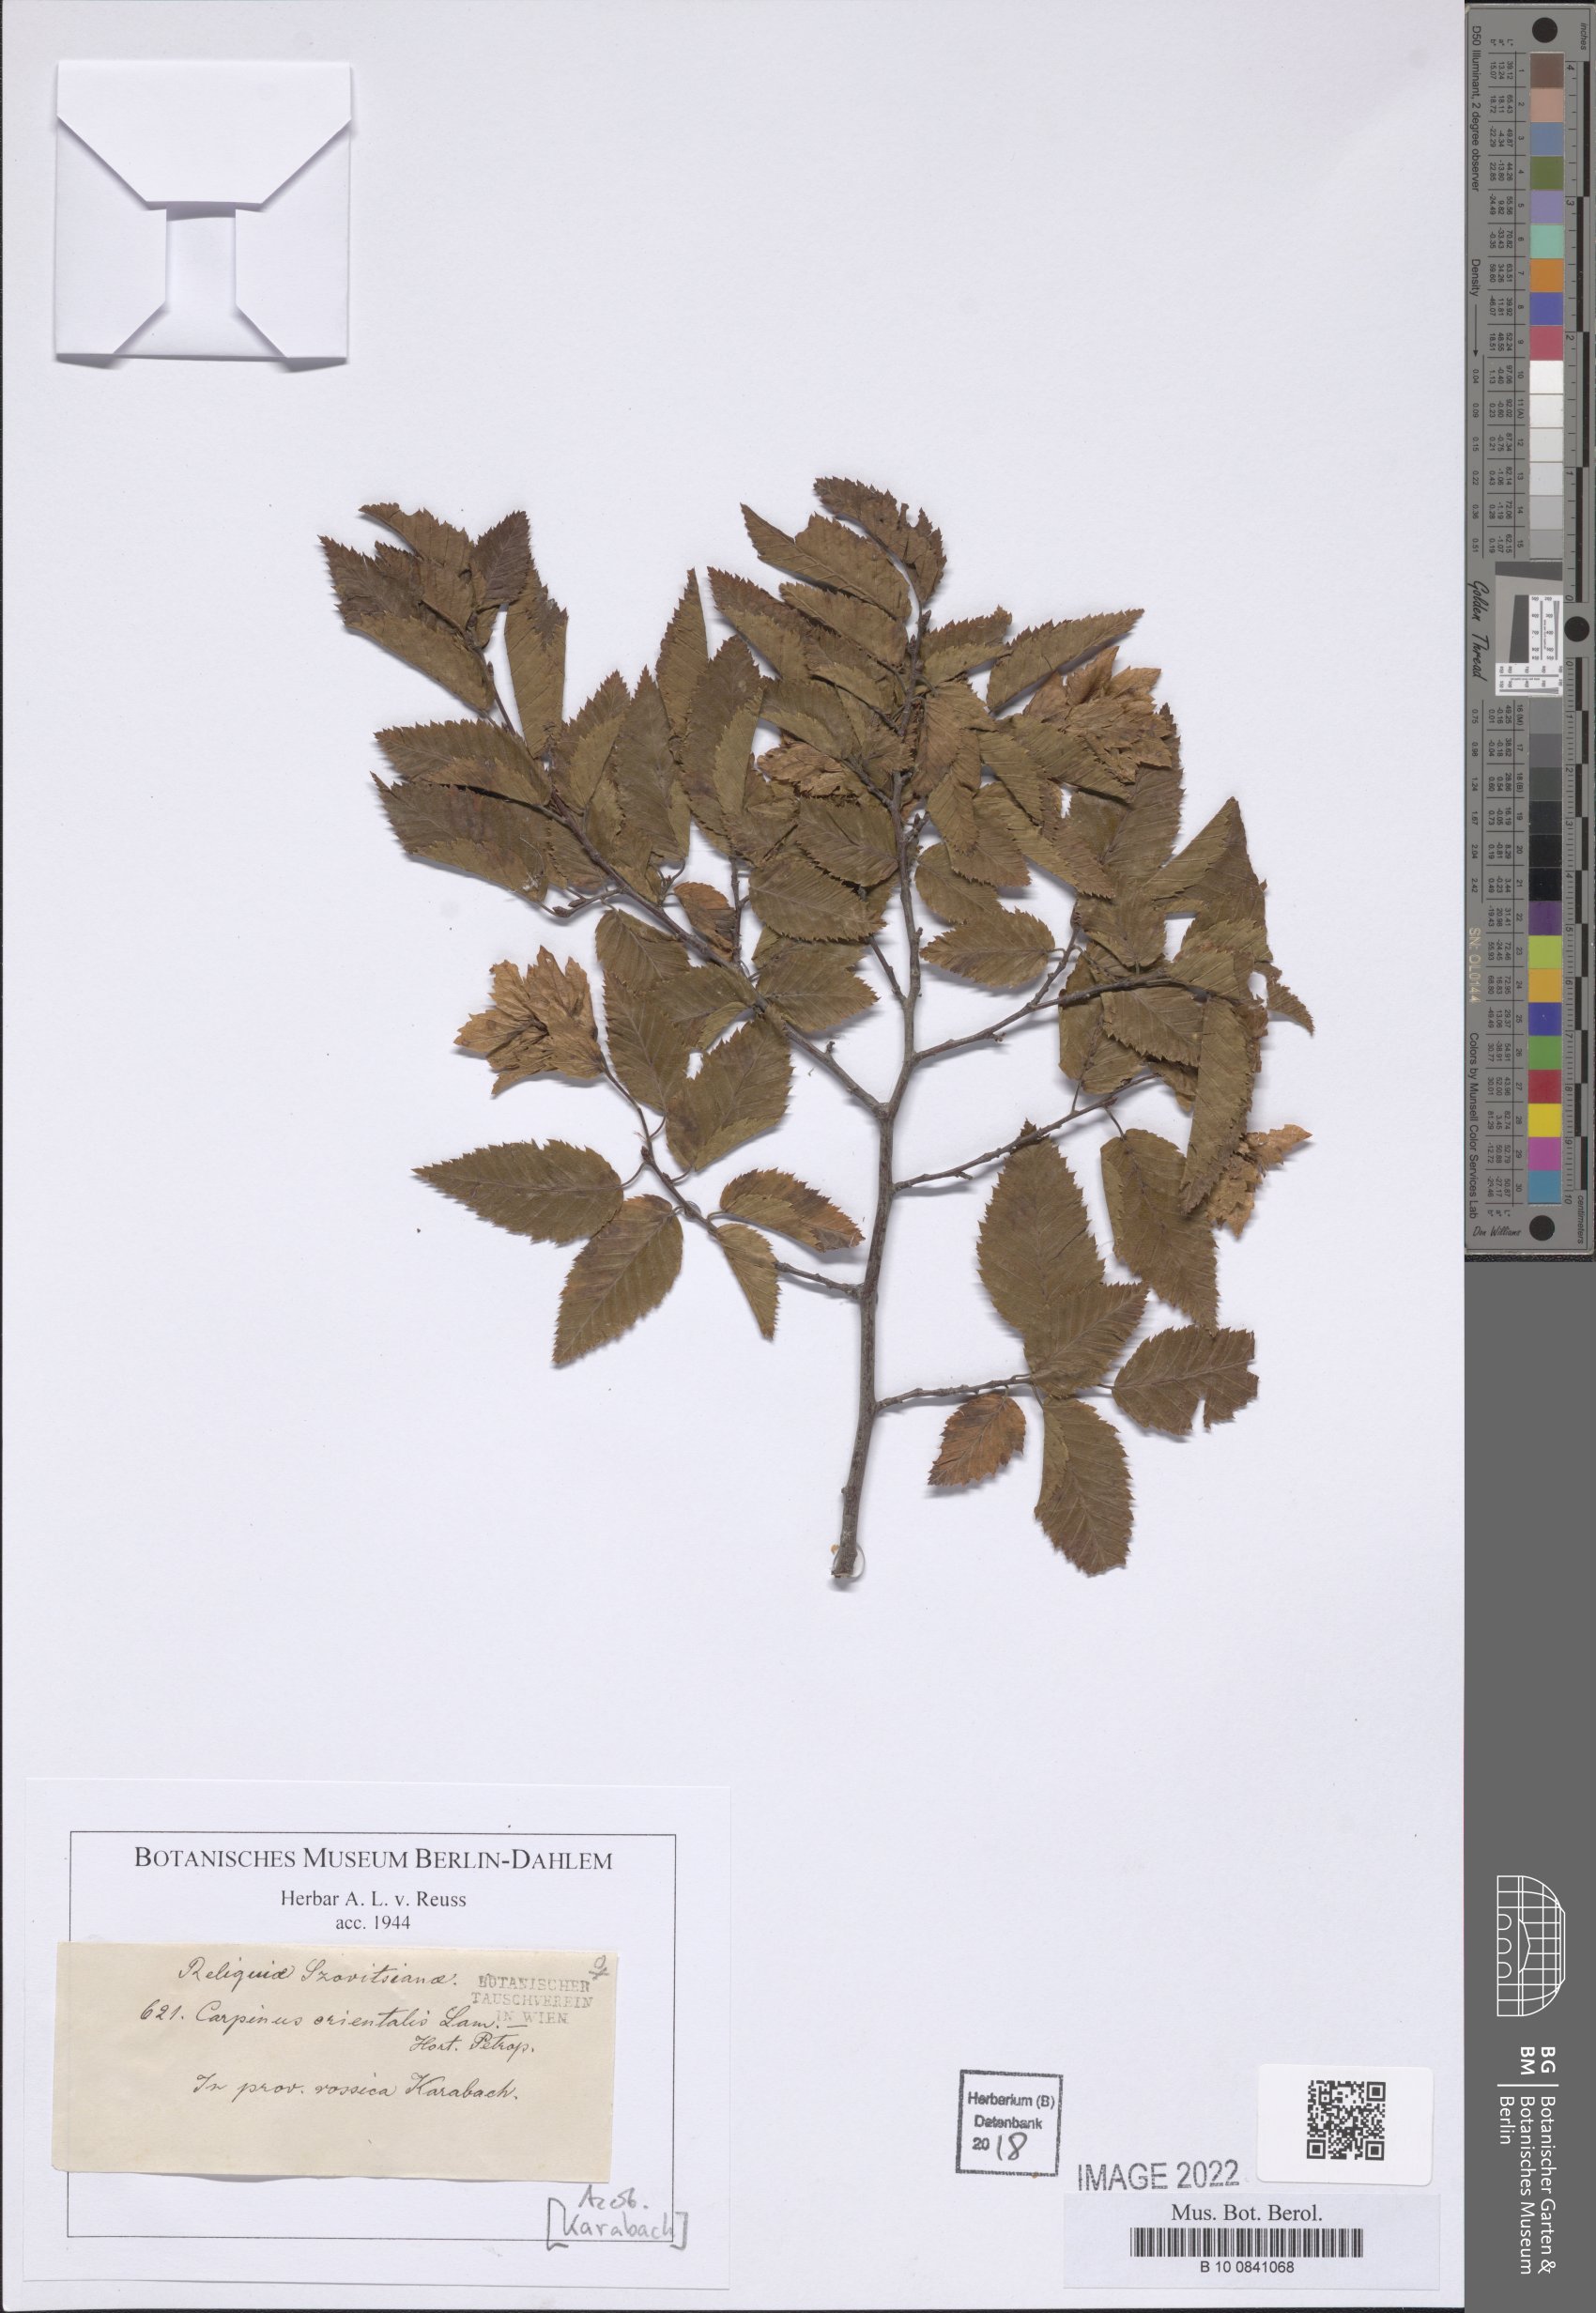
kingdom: Plantae
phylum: Tracheophyta
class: Magnoliopsida
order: Fagales
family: Betulaceae
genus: Carpinus
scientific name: Carpinus orientalis
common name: Eastern hornbeam
